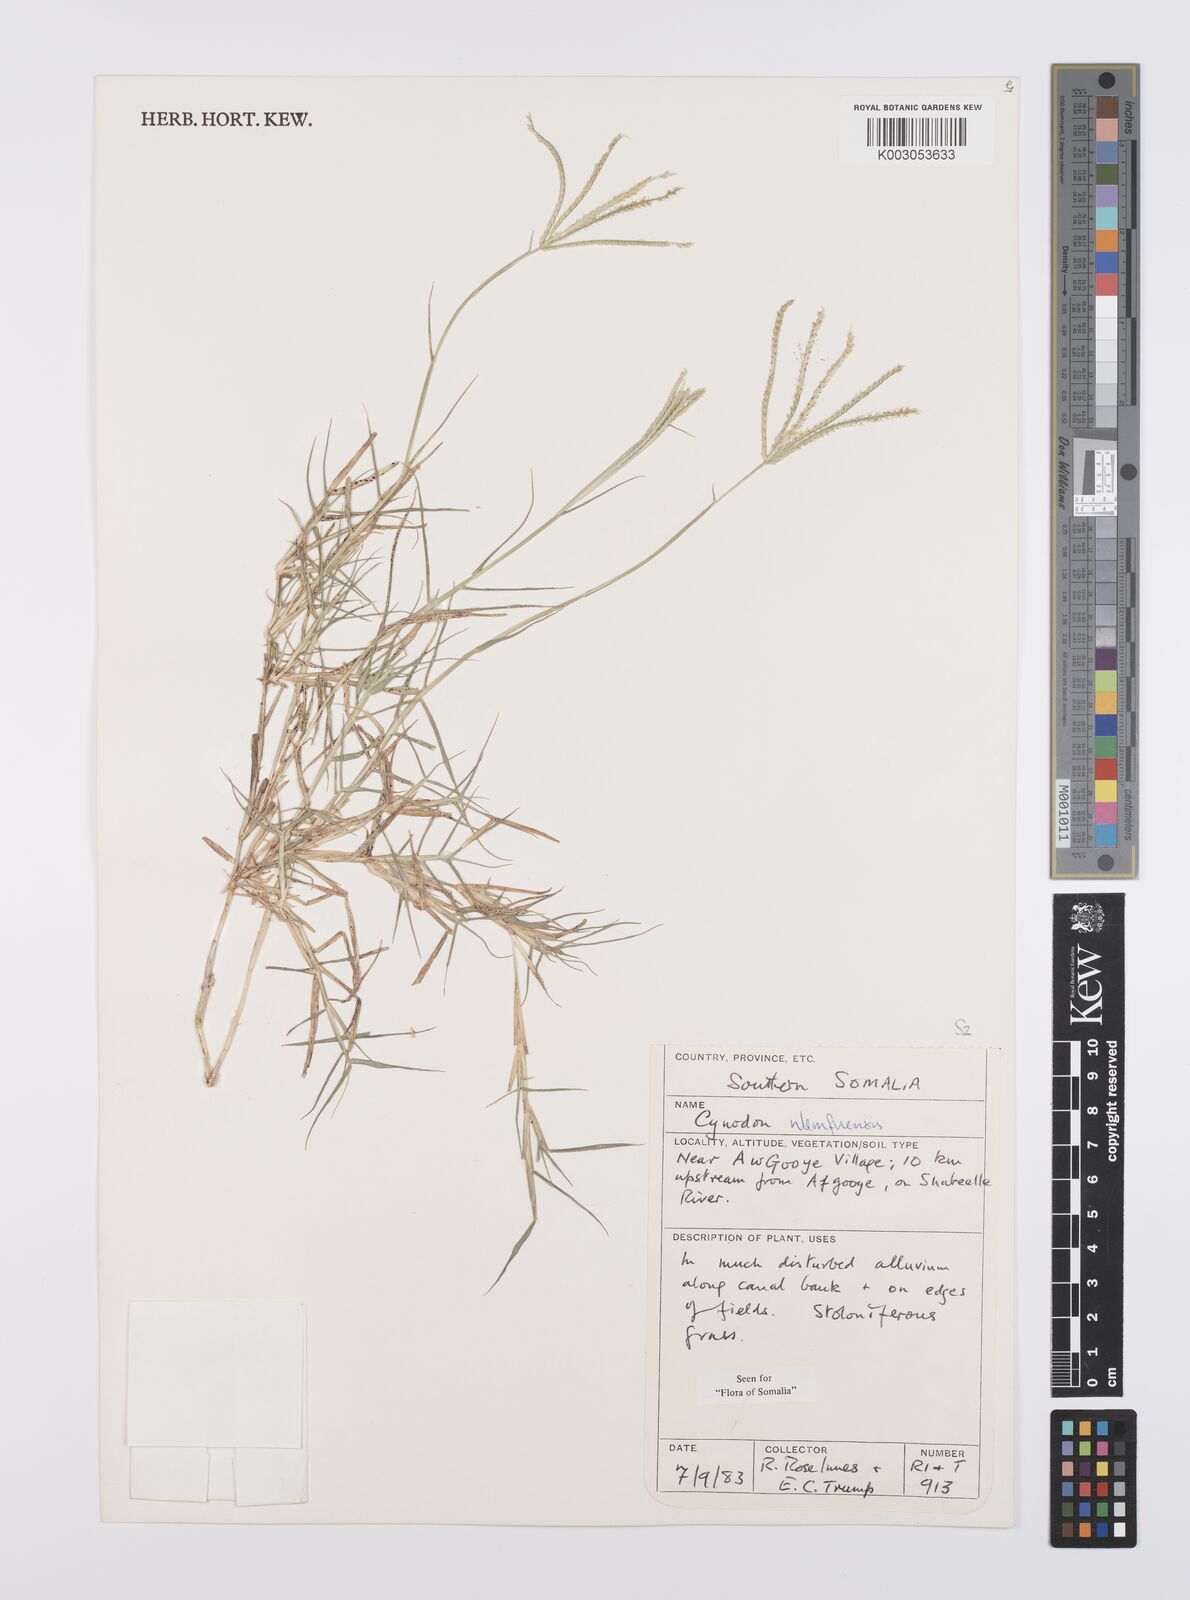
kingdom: Plantae
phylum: Tracheophyta
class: Liliopsida
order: Poales
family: Poaceae
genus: Cynodon
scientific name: Cynodon nlemfuensis
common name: African bermudagrass
